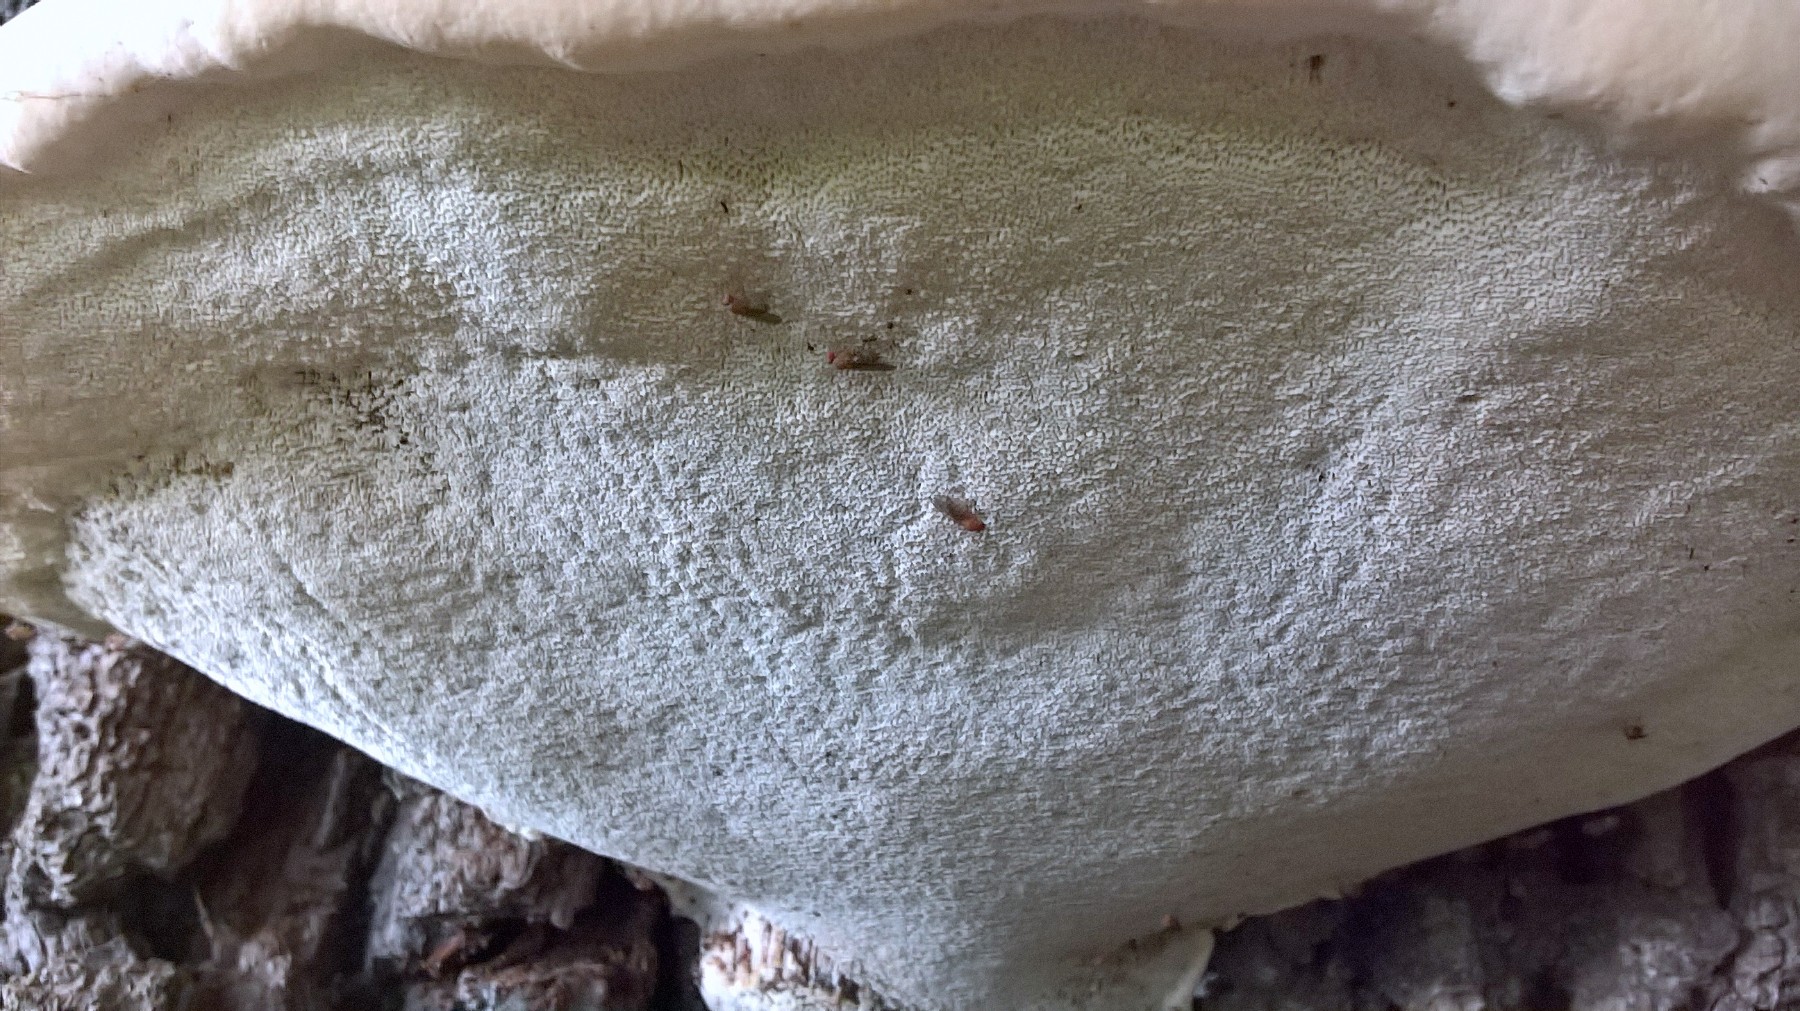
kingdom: Fungi
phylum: Basidiomycota
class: Agaricomycetes
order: Polyporales
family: Polyporaceae
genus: Ganoderma
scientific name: Ganoderma resinaceum
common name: gyldenbrun lakporesvamp
